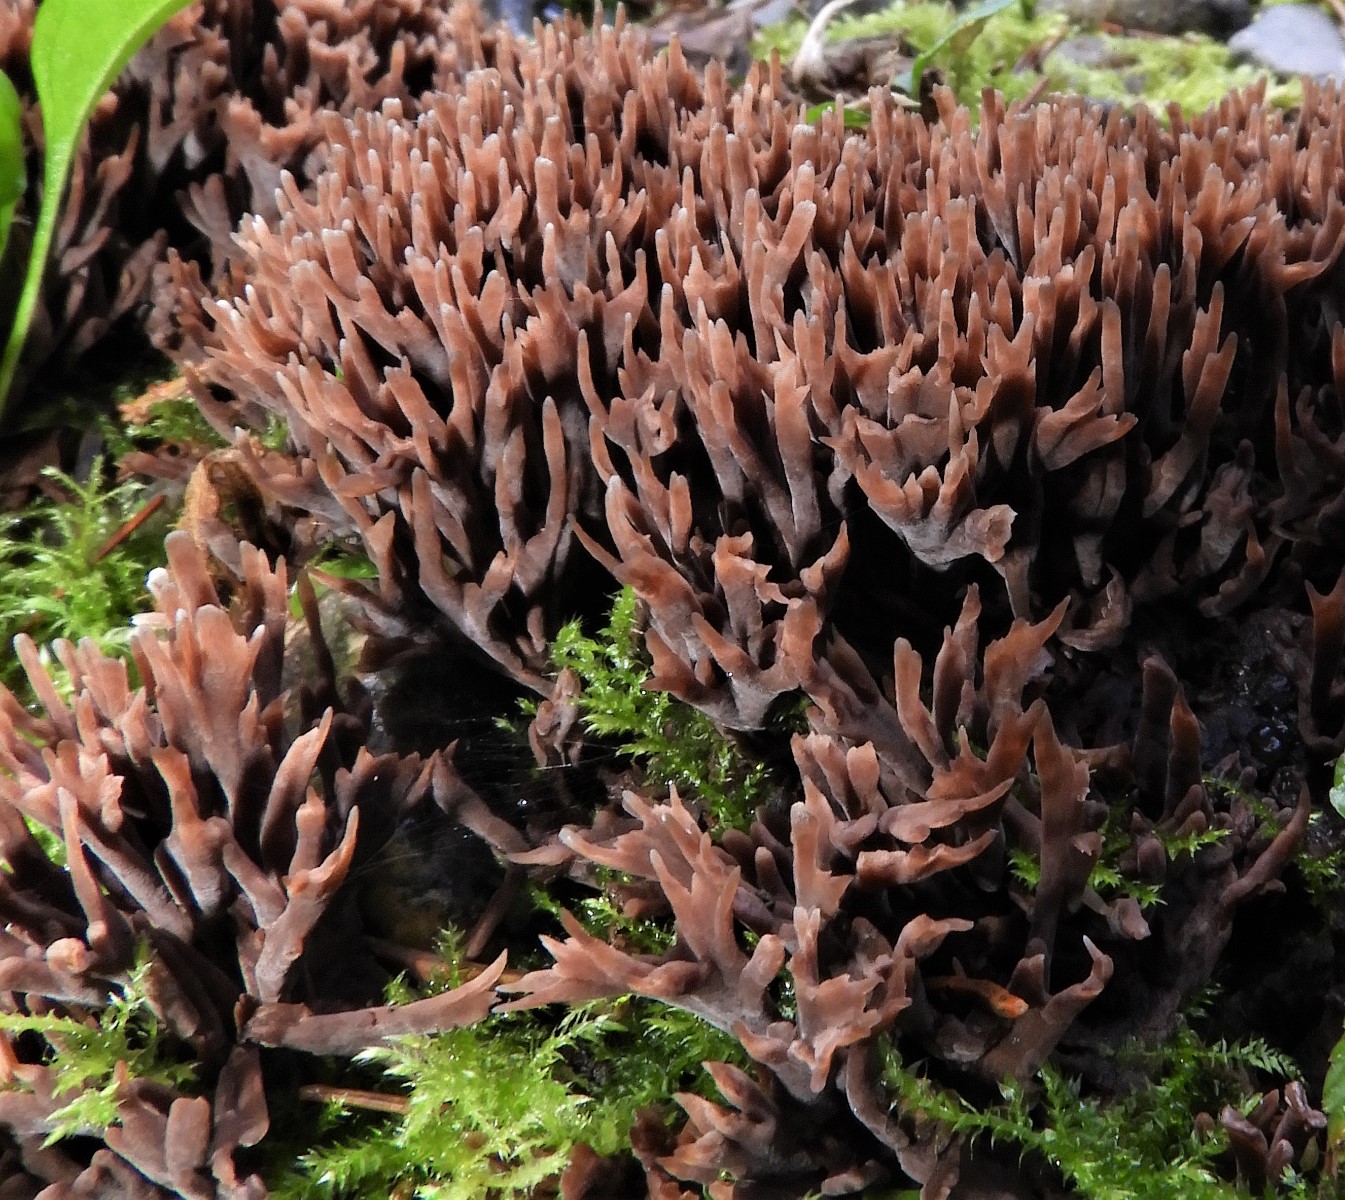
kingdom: Fungi
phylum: Basidiomycota
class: Agaricomycetes
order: Thelephorales
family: Thelephoraceae
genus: Thelephora
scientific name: Thelephora palmata
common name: grenet frynsesvamp
